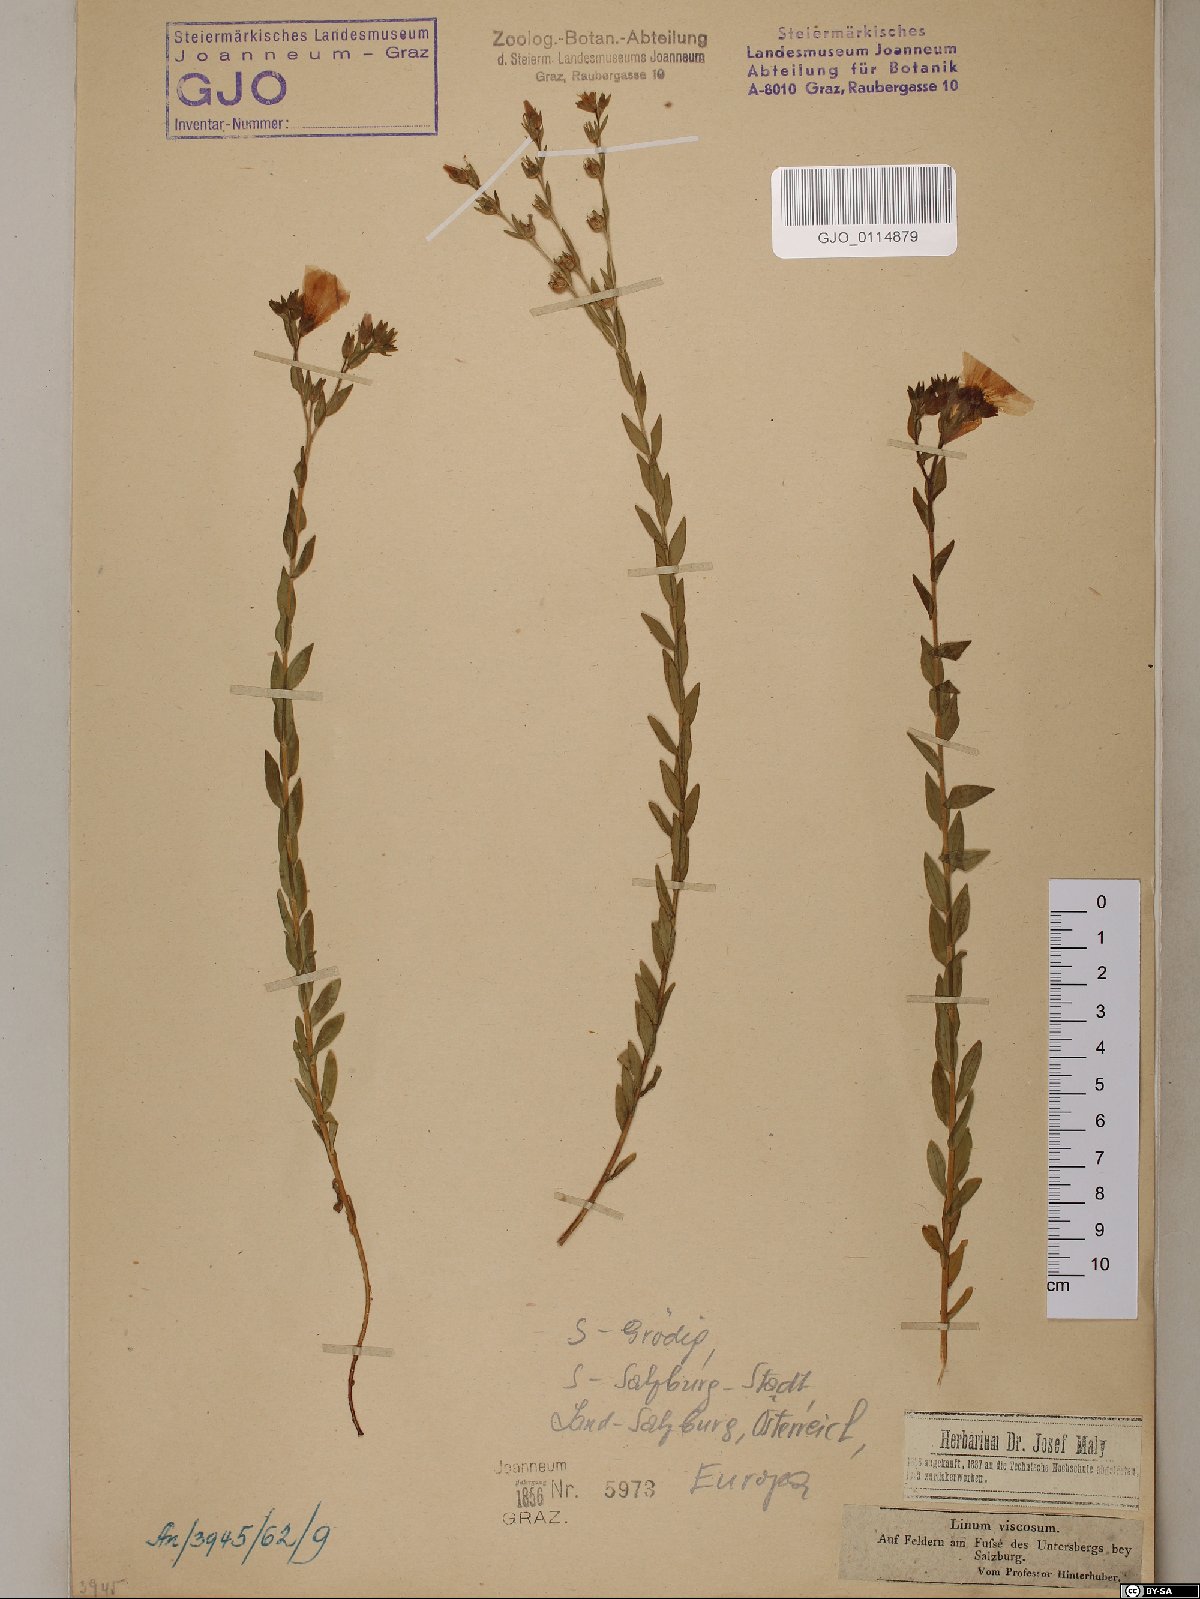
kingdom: Plantae
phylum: Tracheophyta
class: Magnoliopsida
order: Malpighiales
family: Linaceae
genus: Linum
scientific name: Linum viscosum
